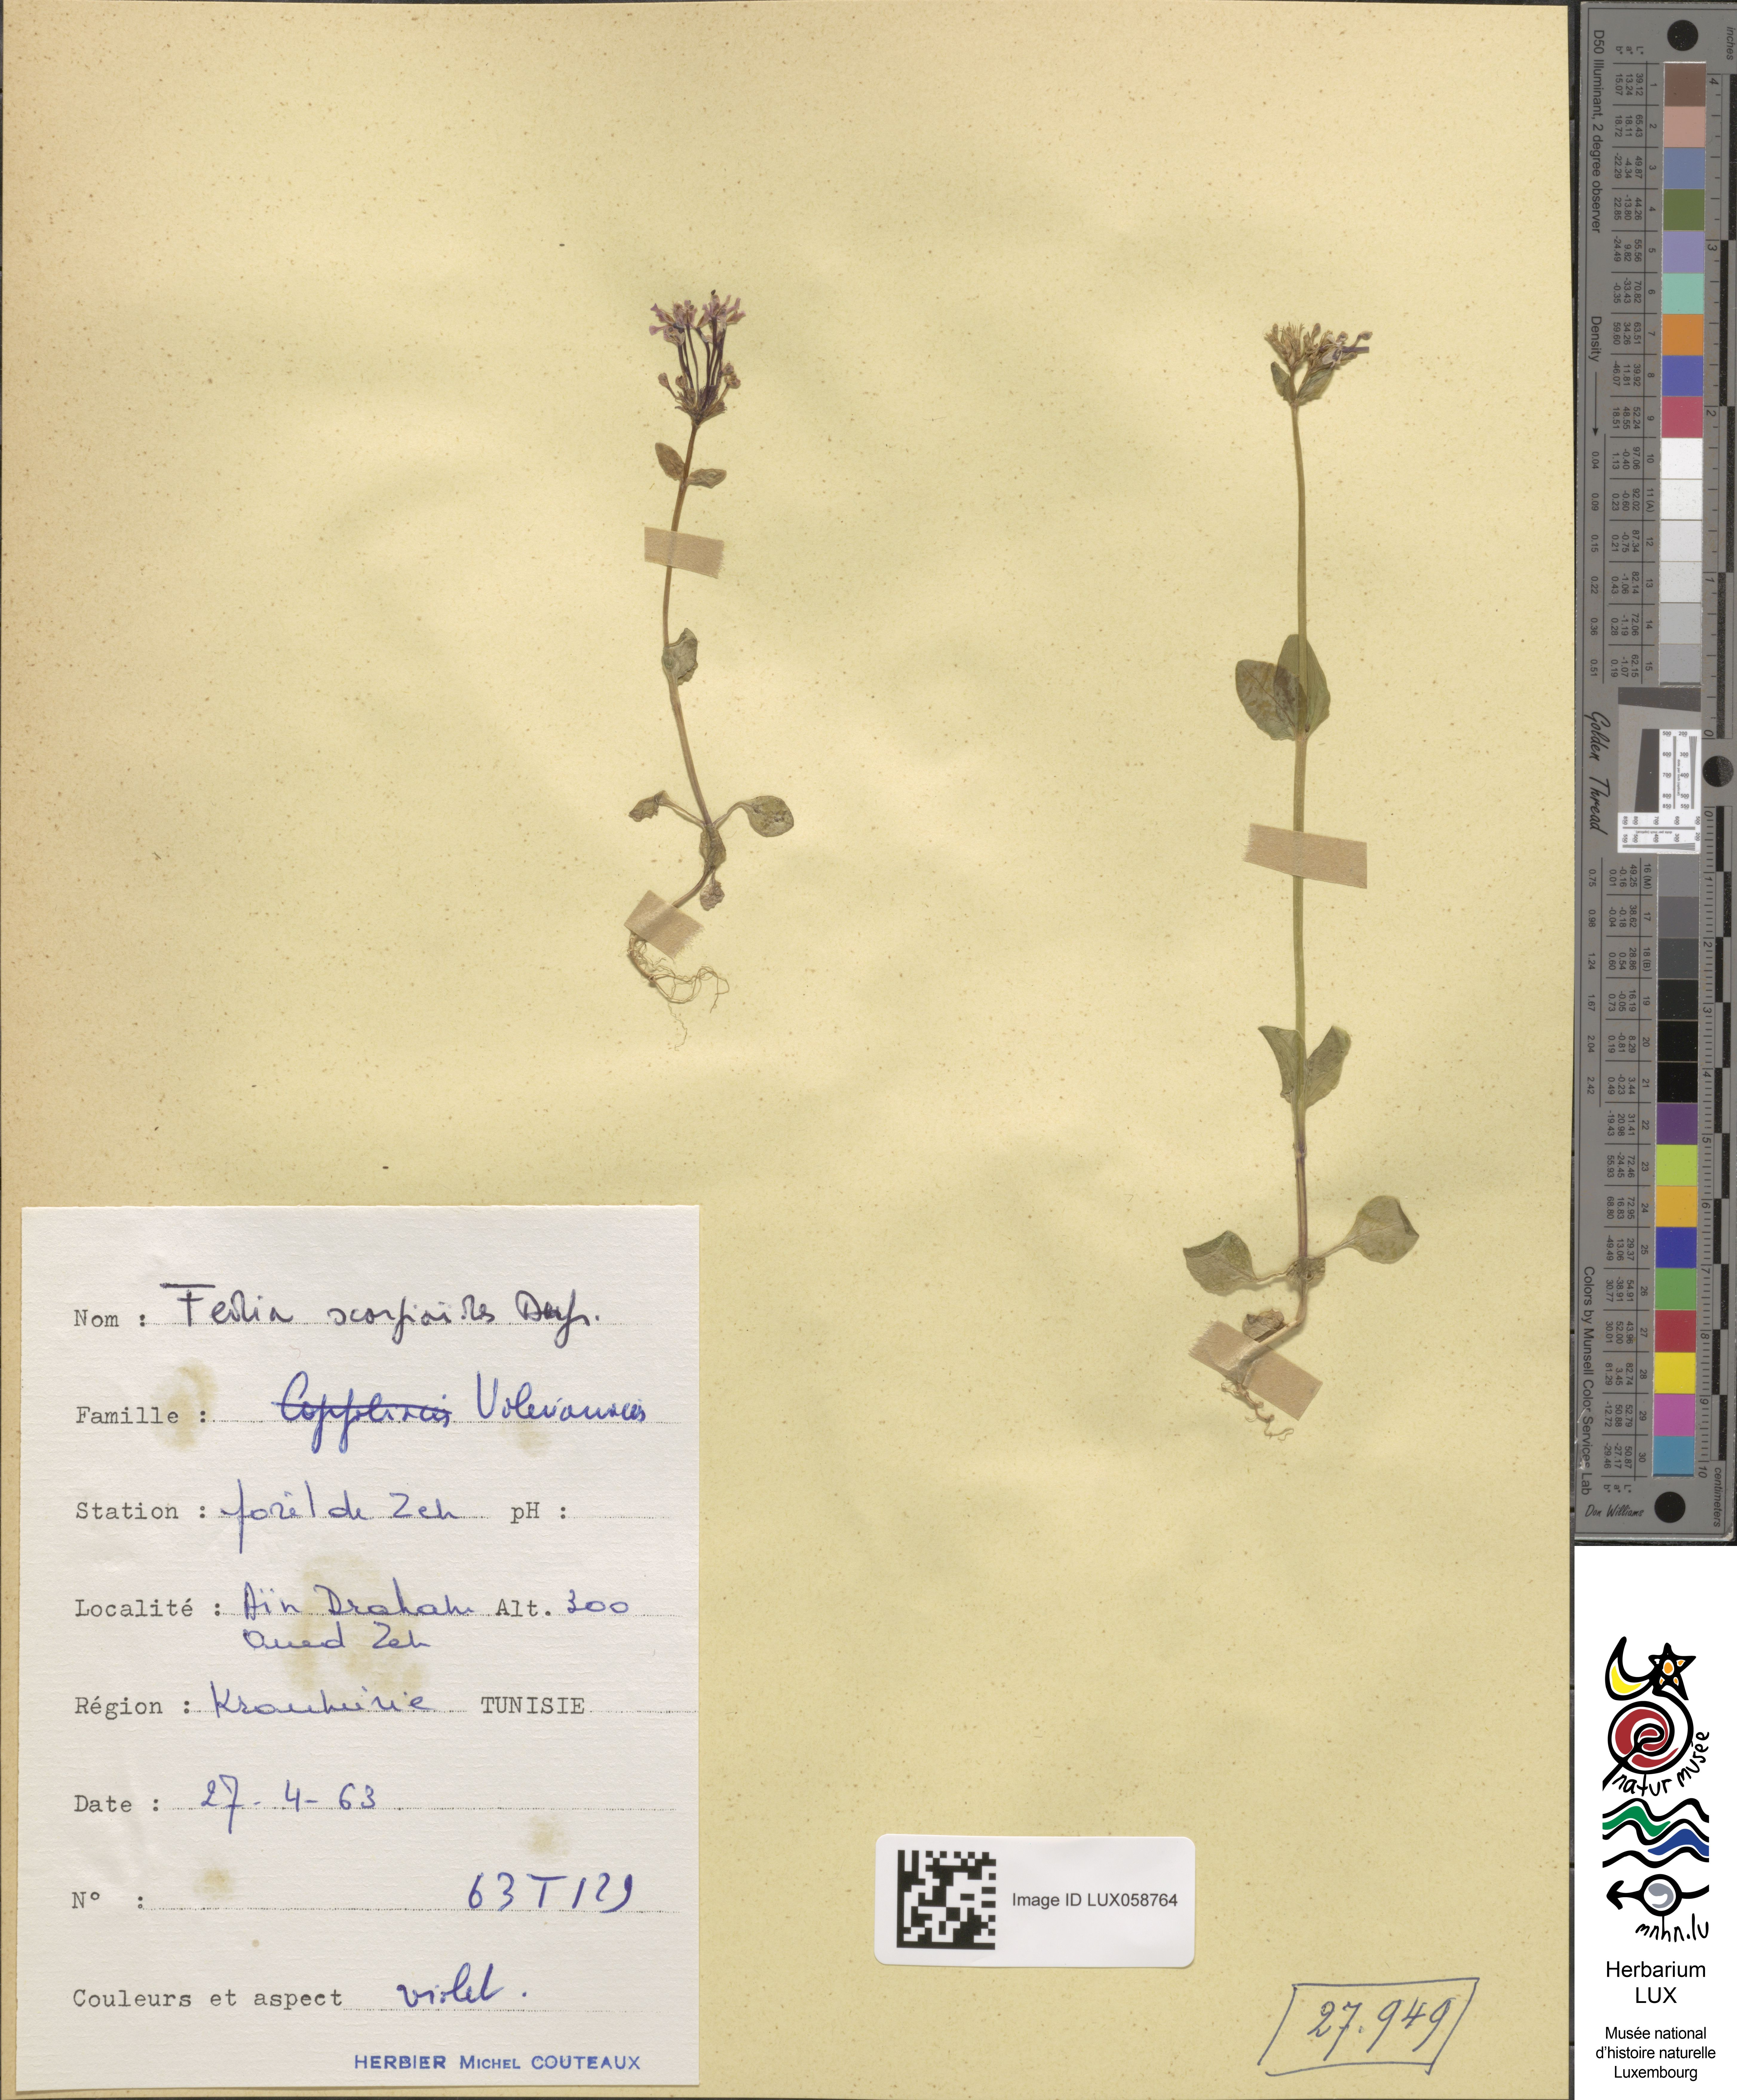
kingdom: Plantae
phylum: Tracheophyta
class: Magnoliopsida
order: Dipsacales
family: Caprifoliaceae
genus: Fedia
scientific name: Fedia cornucopiae
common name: Horn-of-plenty
